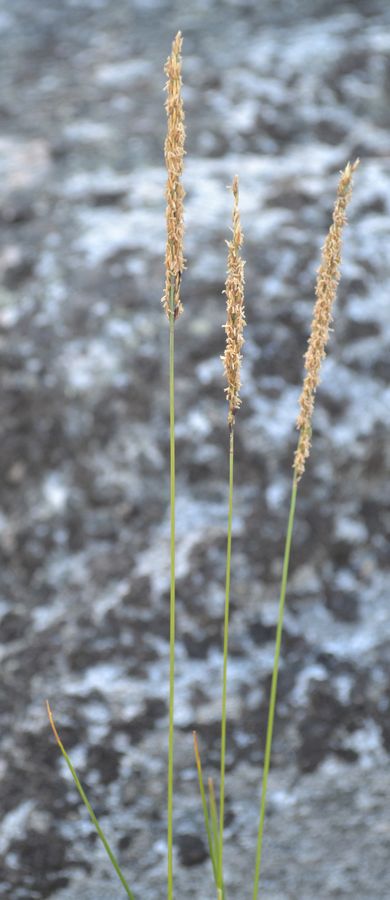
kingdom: Plantae
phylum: Tracheophyta
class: Liliopsida
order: Poales
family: Poaceae
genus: Agrostis
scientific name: Agrostis stolonifera
